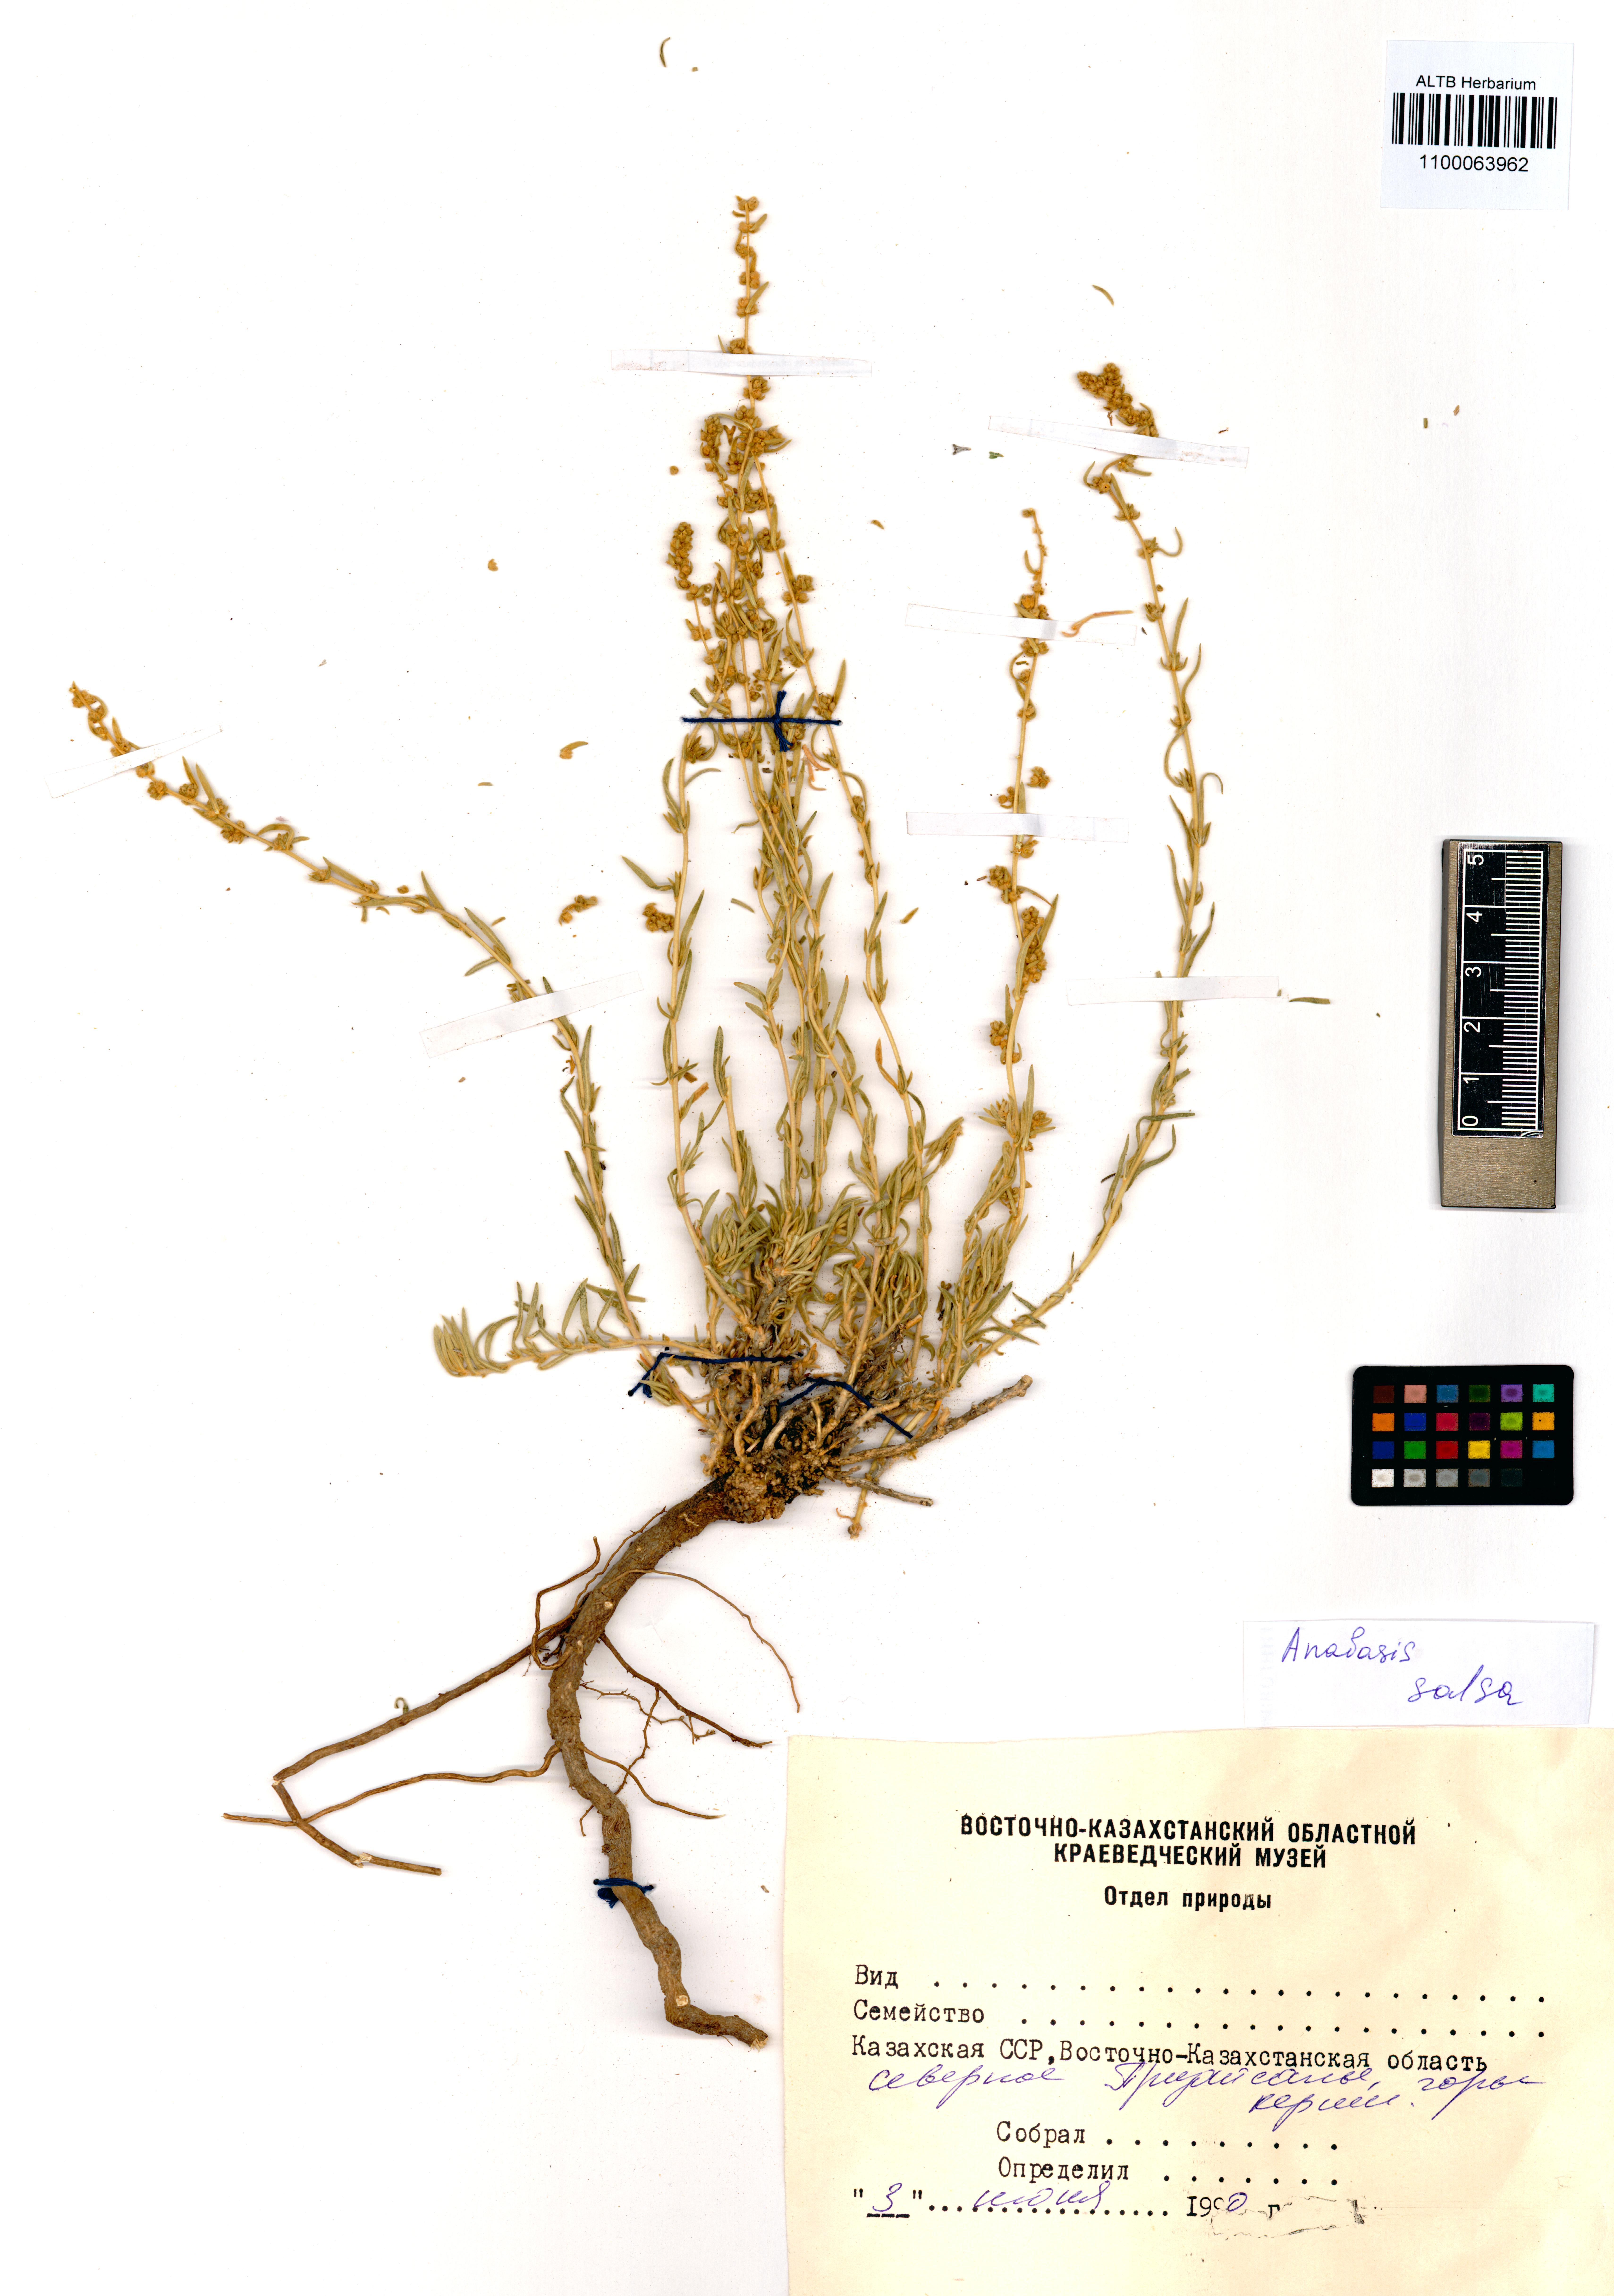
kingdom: Plantae
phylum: Tracheophyta
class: Magnoliopsida
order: Caryophyllales
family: Amaranthaceae
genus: Anabasis
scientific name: Anabasis salsa
